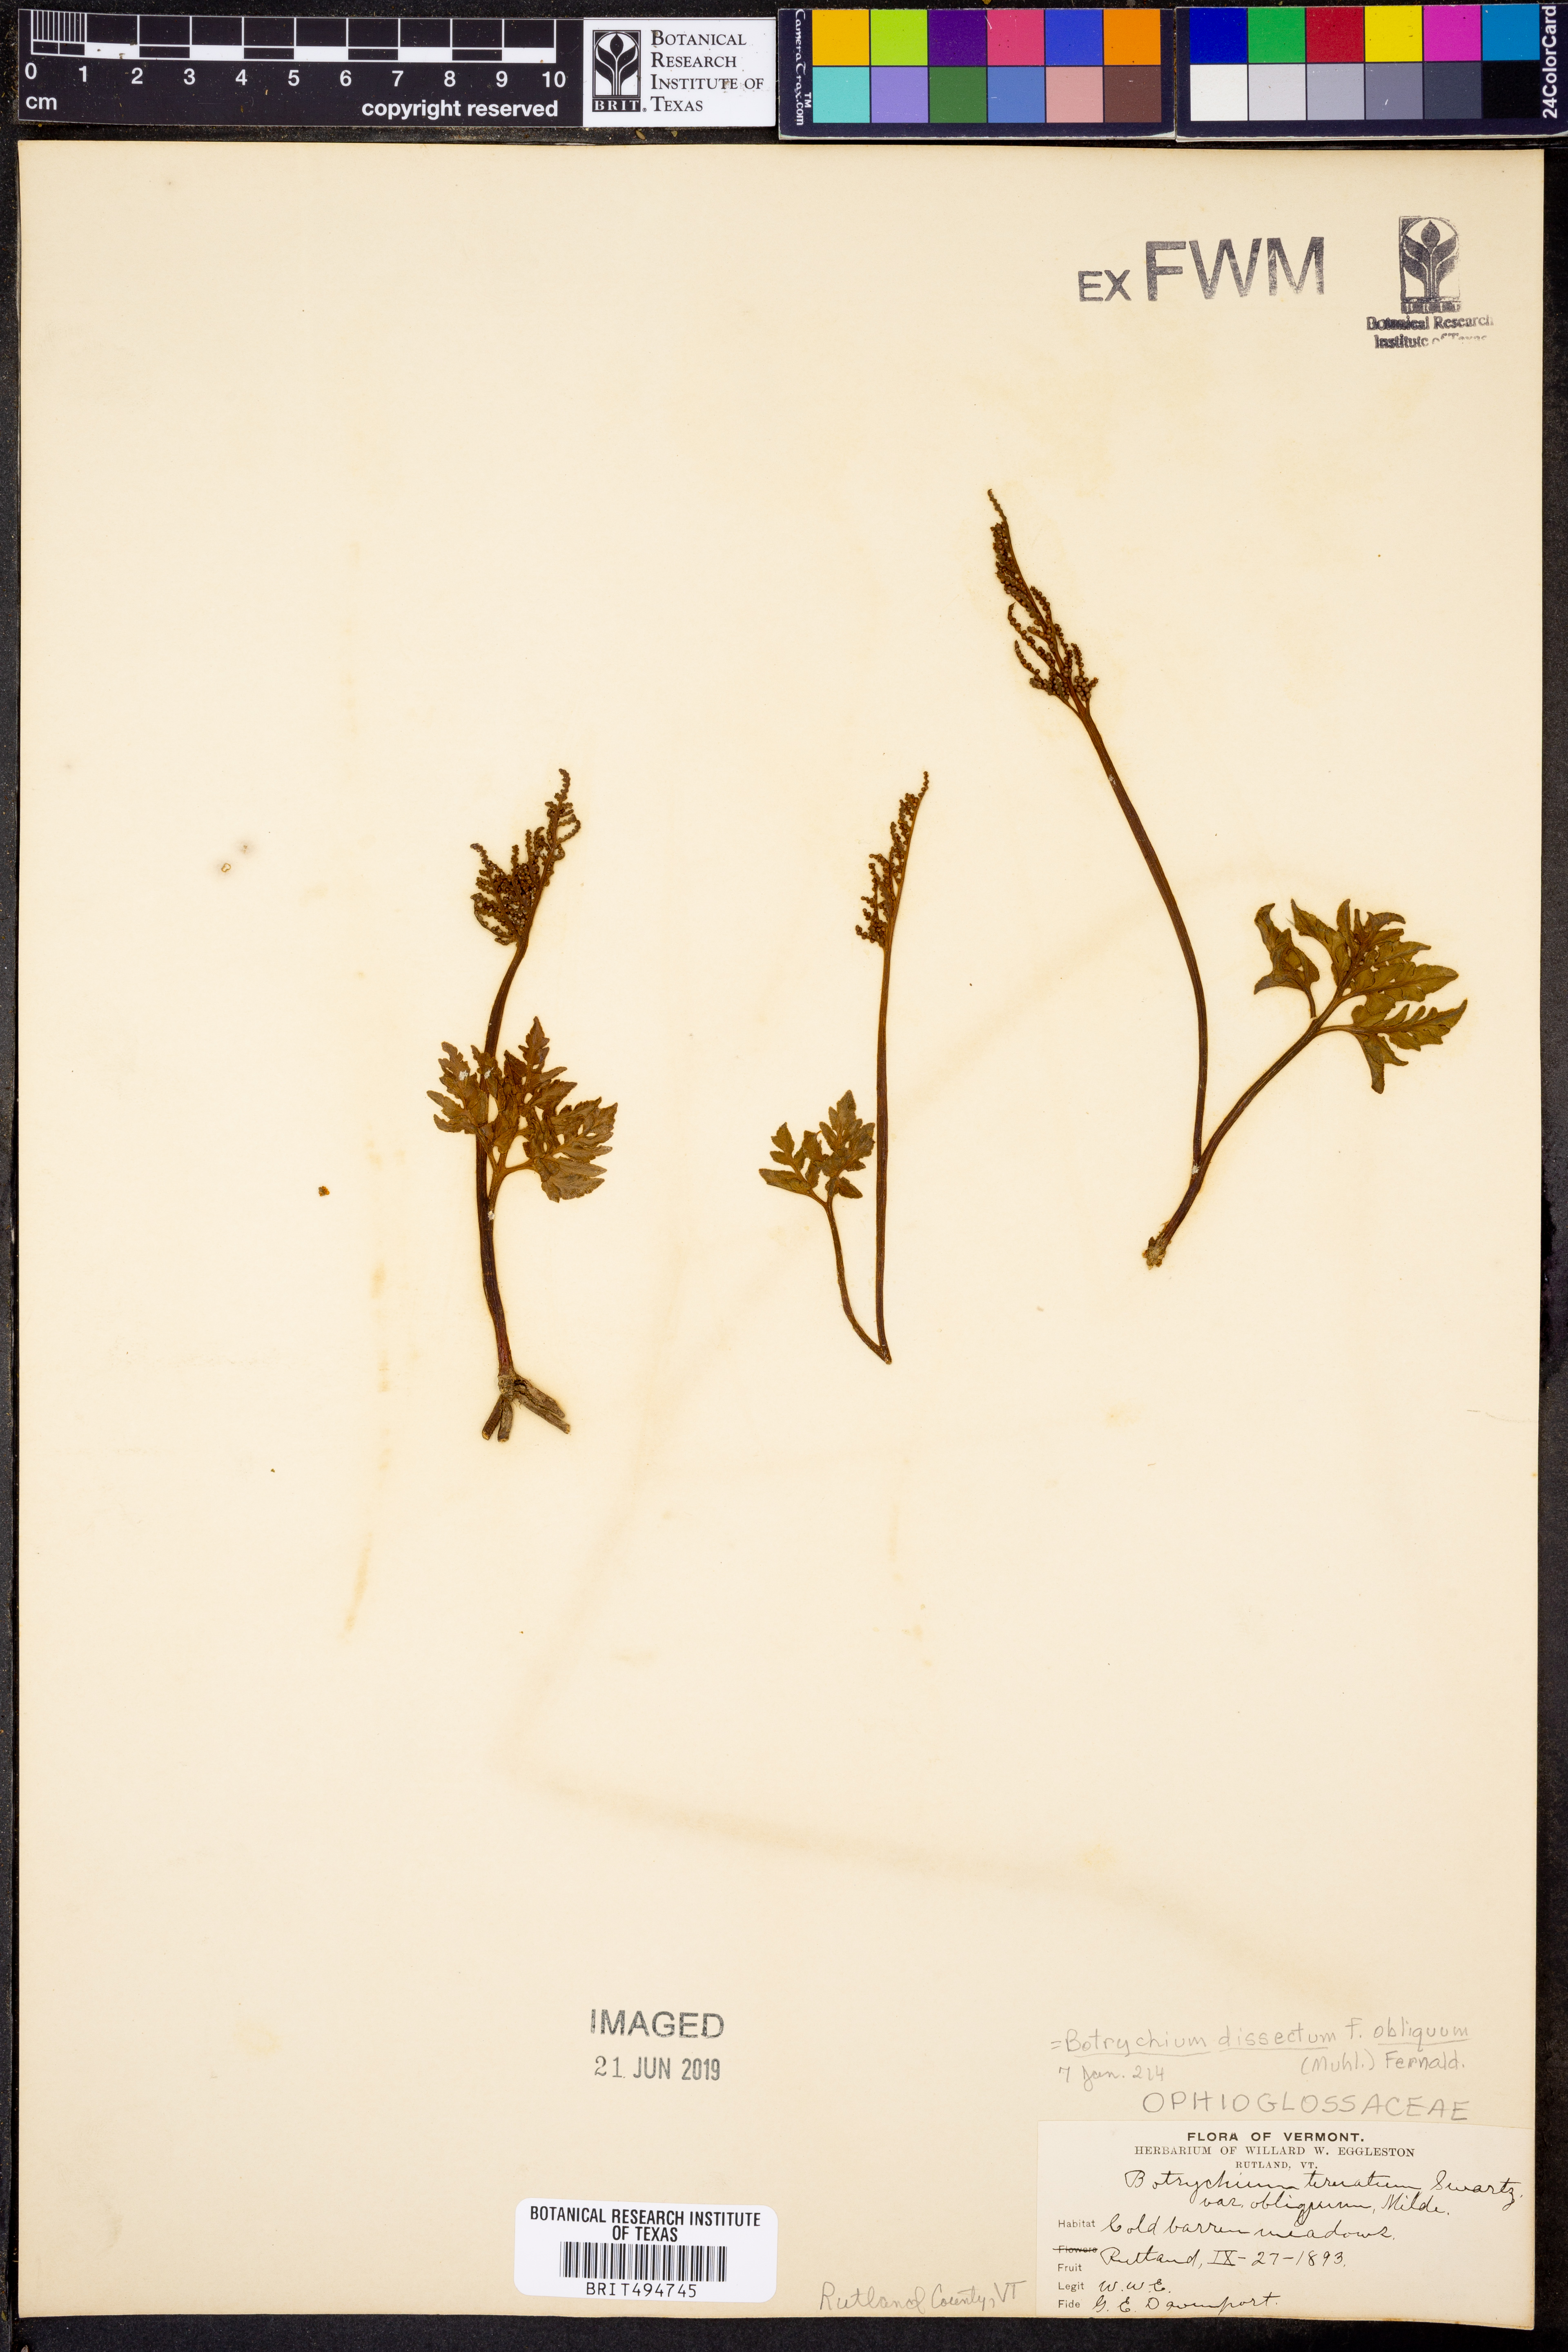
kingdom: Plantae
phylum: Tracheophyta
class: Polypodiopsida
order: Ophioglossales
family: Ophioglossaceae
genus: Sceptridium
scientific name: Sceptridium dissectum
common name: Cut-leaved grapefern
